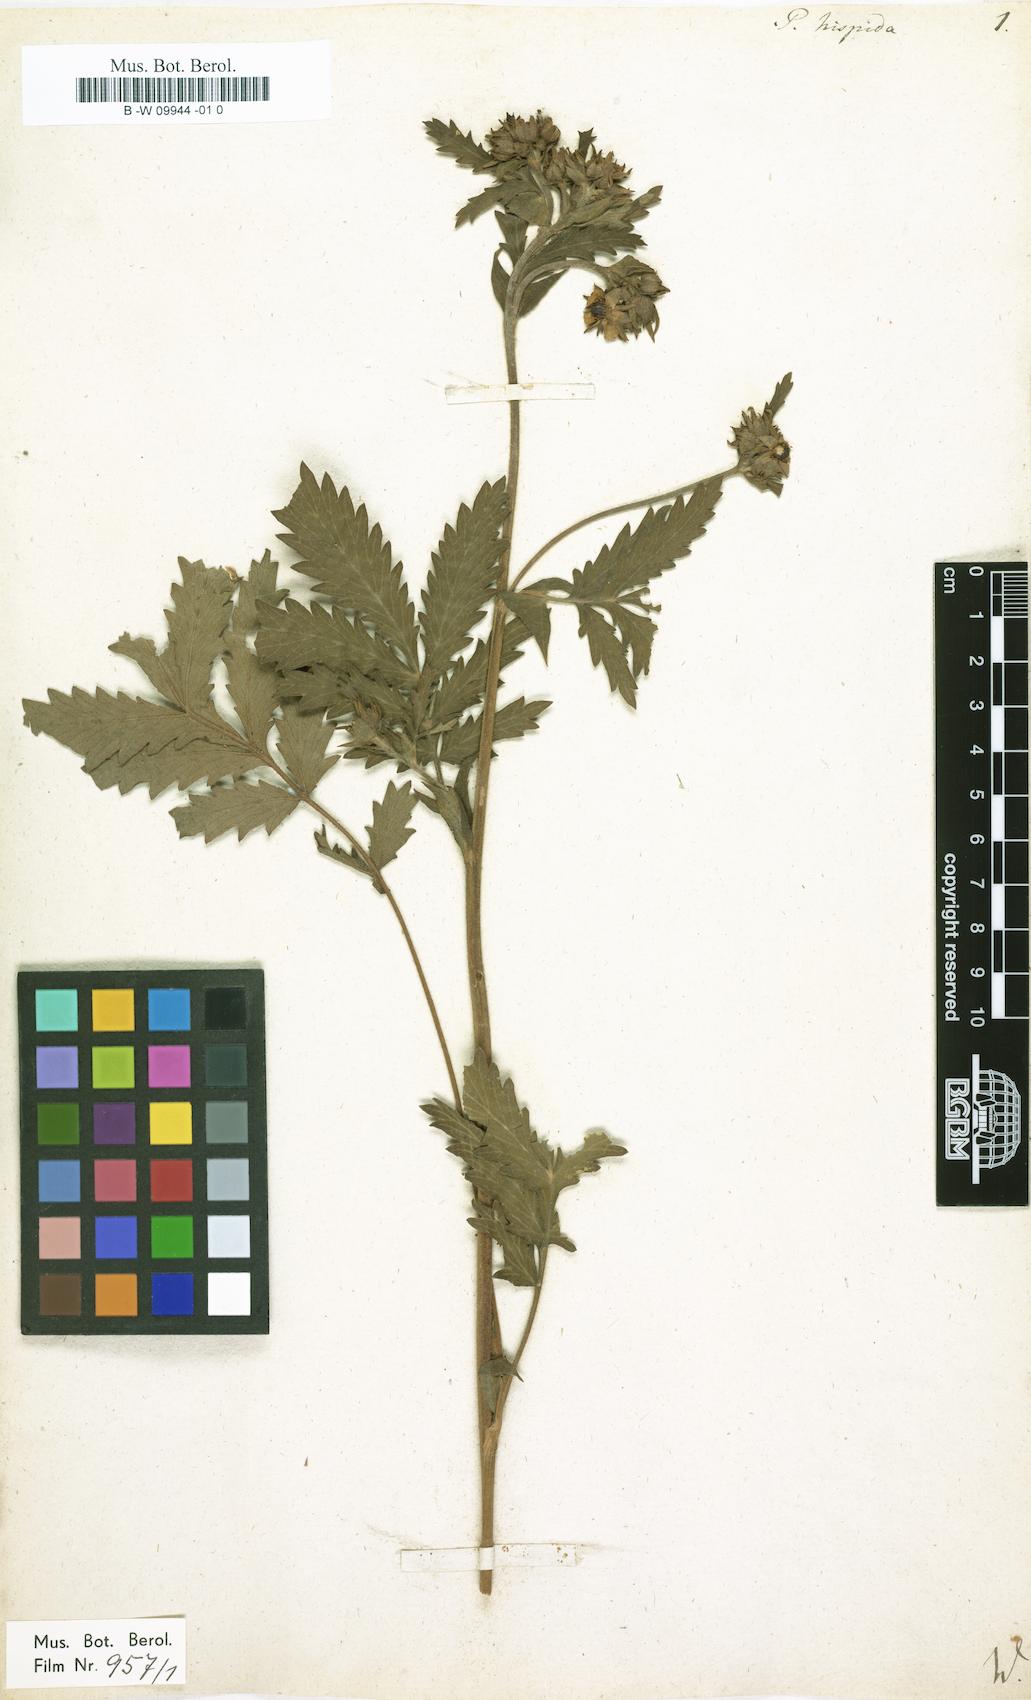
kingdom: Plantae
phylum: Tracheophyta
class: Magnoliopsida
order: Rosales
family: Rosaceae
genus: Potentilla
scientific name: Potentilla
